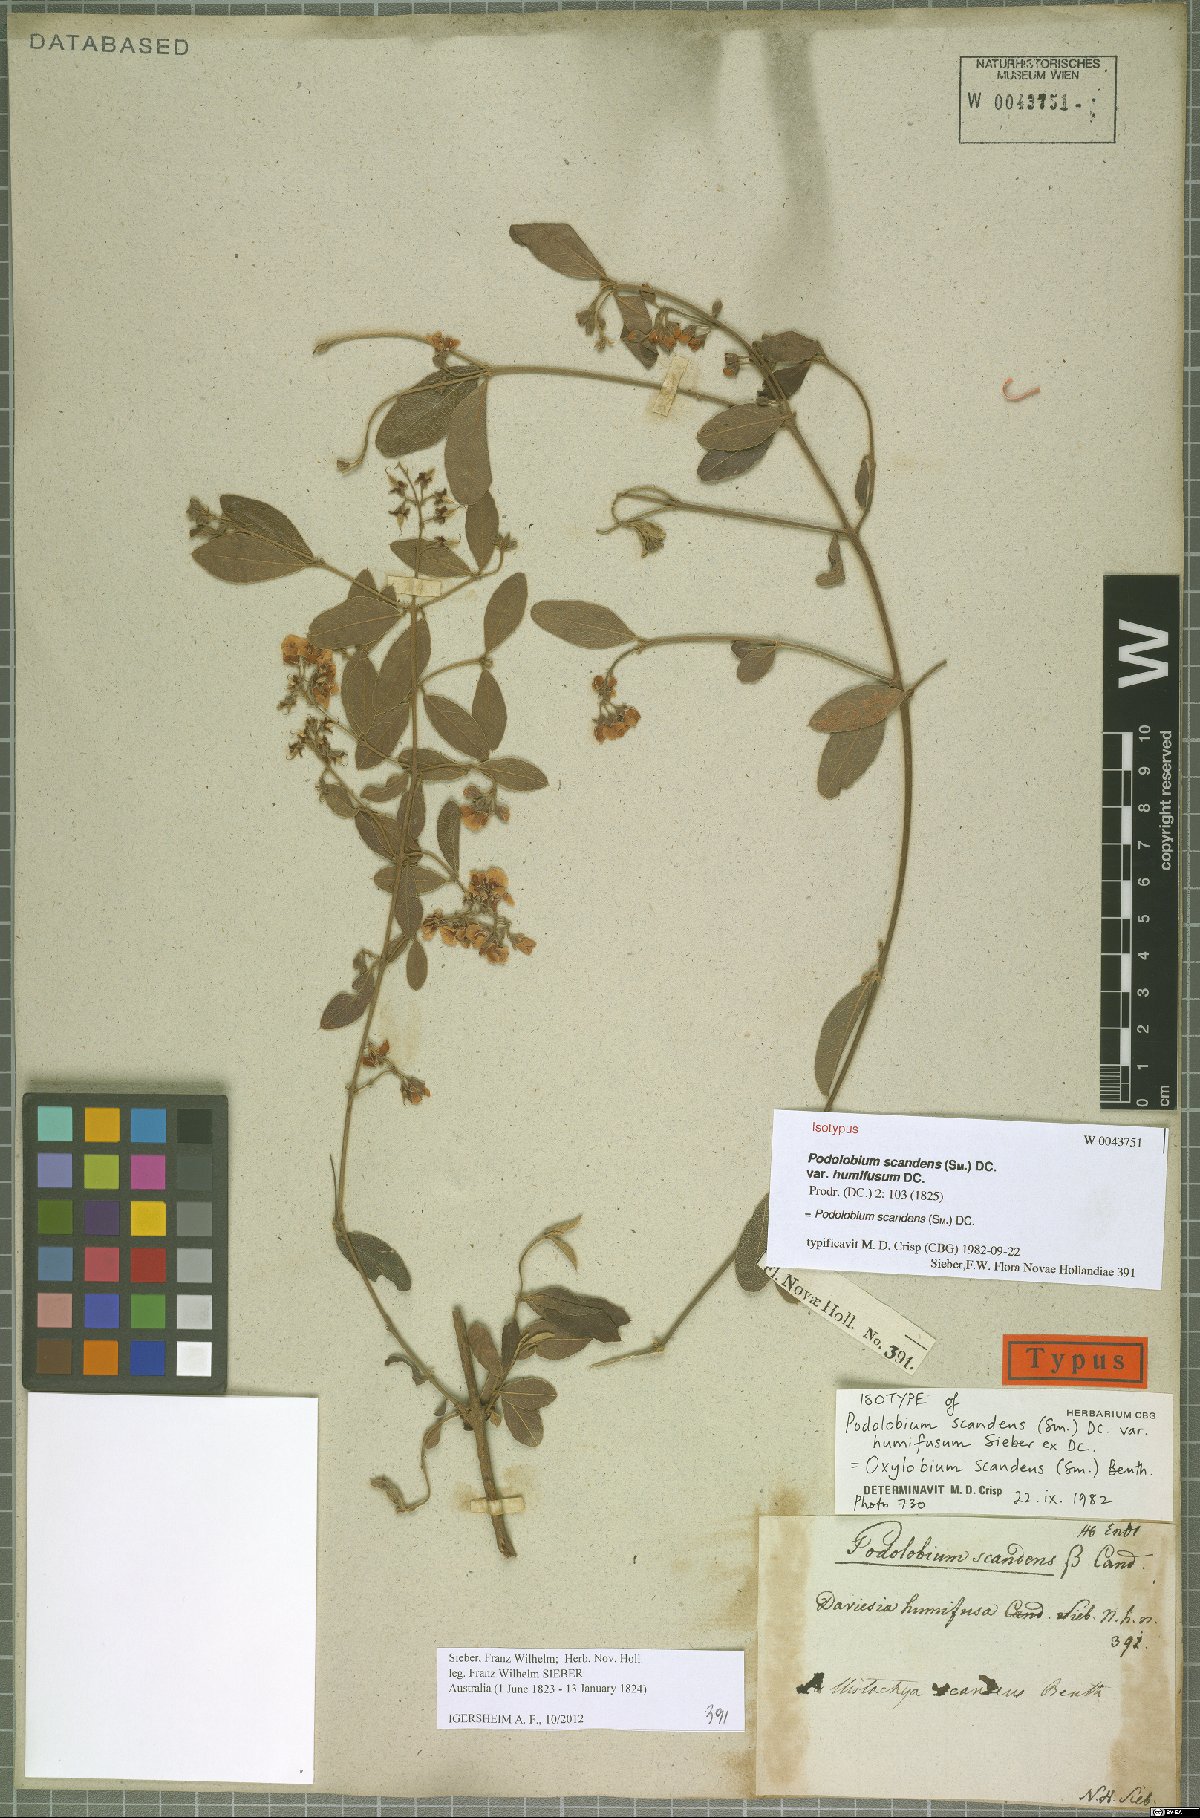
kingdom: Plantae
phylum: Tracheophyta
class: Magnoliopsida
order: Fabales
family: Fabaceae
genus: Podolobium
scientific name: Podolobium scandens
